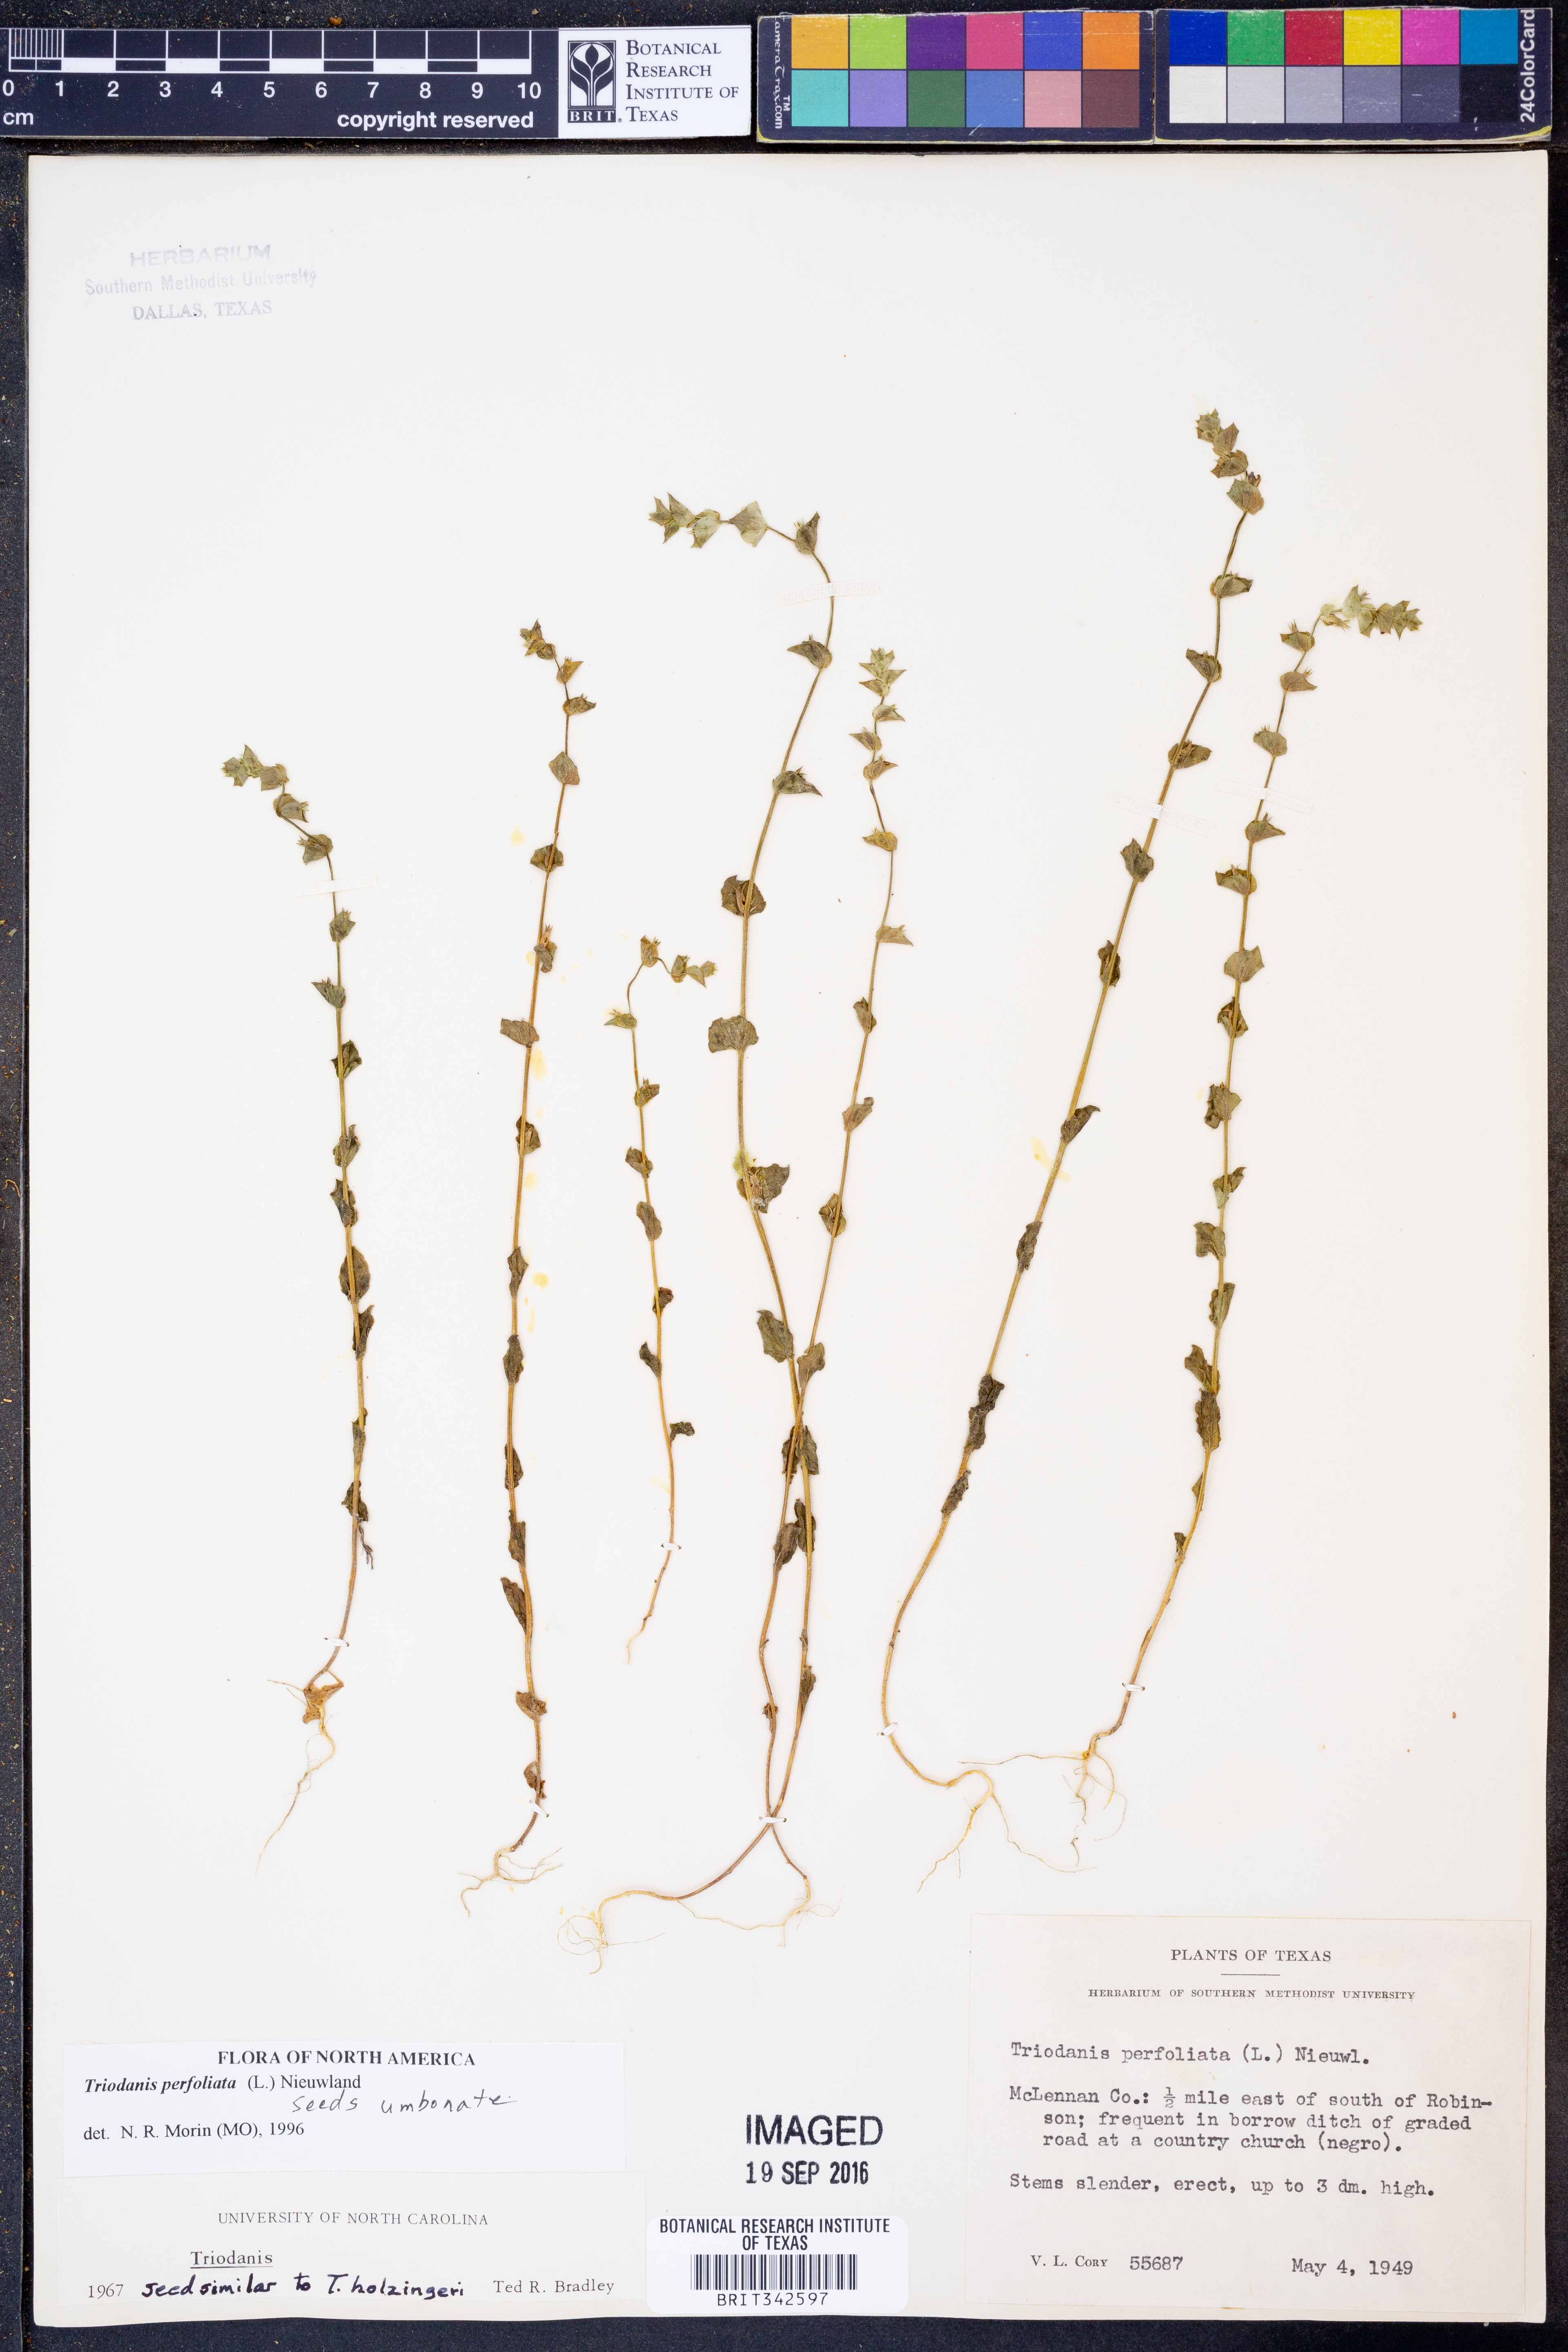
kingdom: Plantae
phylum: Tracheophyta
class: Magnoliopsida
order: Asterales
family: Campanulaceae
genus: Triodanis
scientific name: Triodanis perfoliata
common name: Clasping venus' looking-glass
